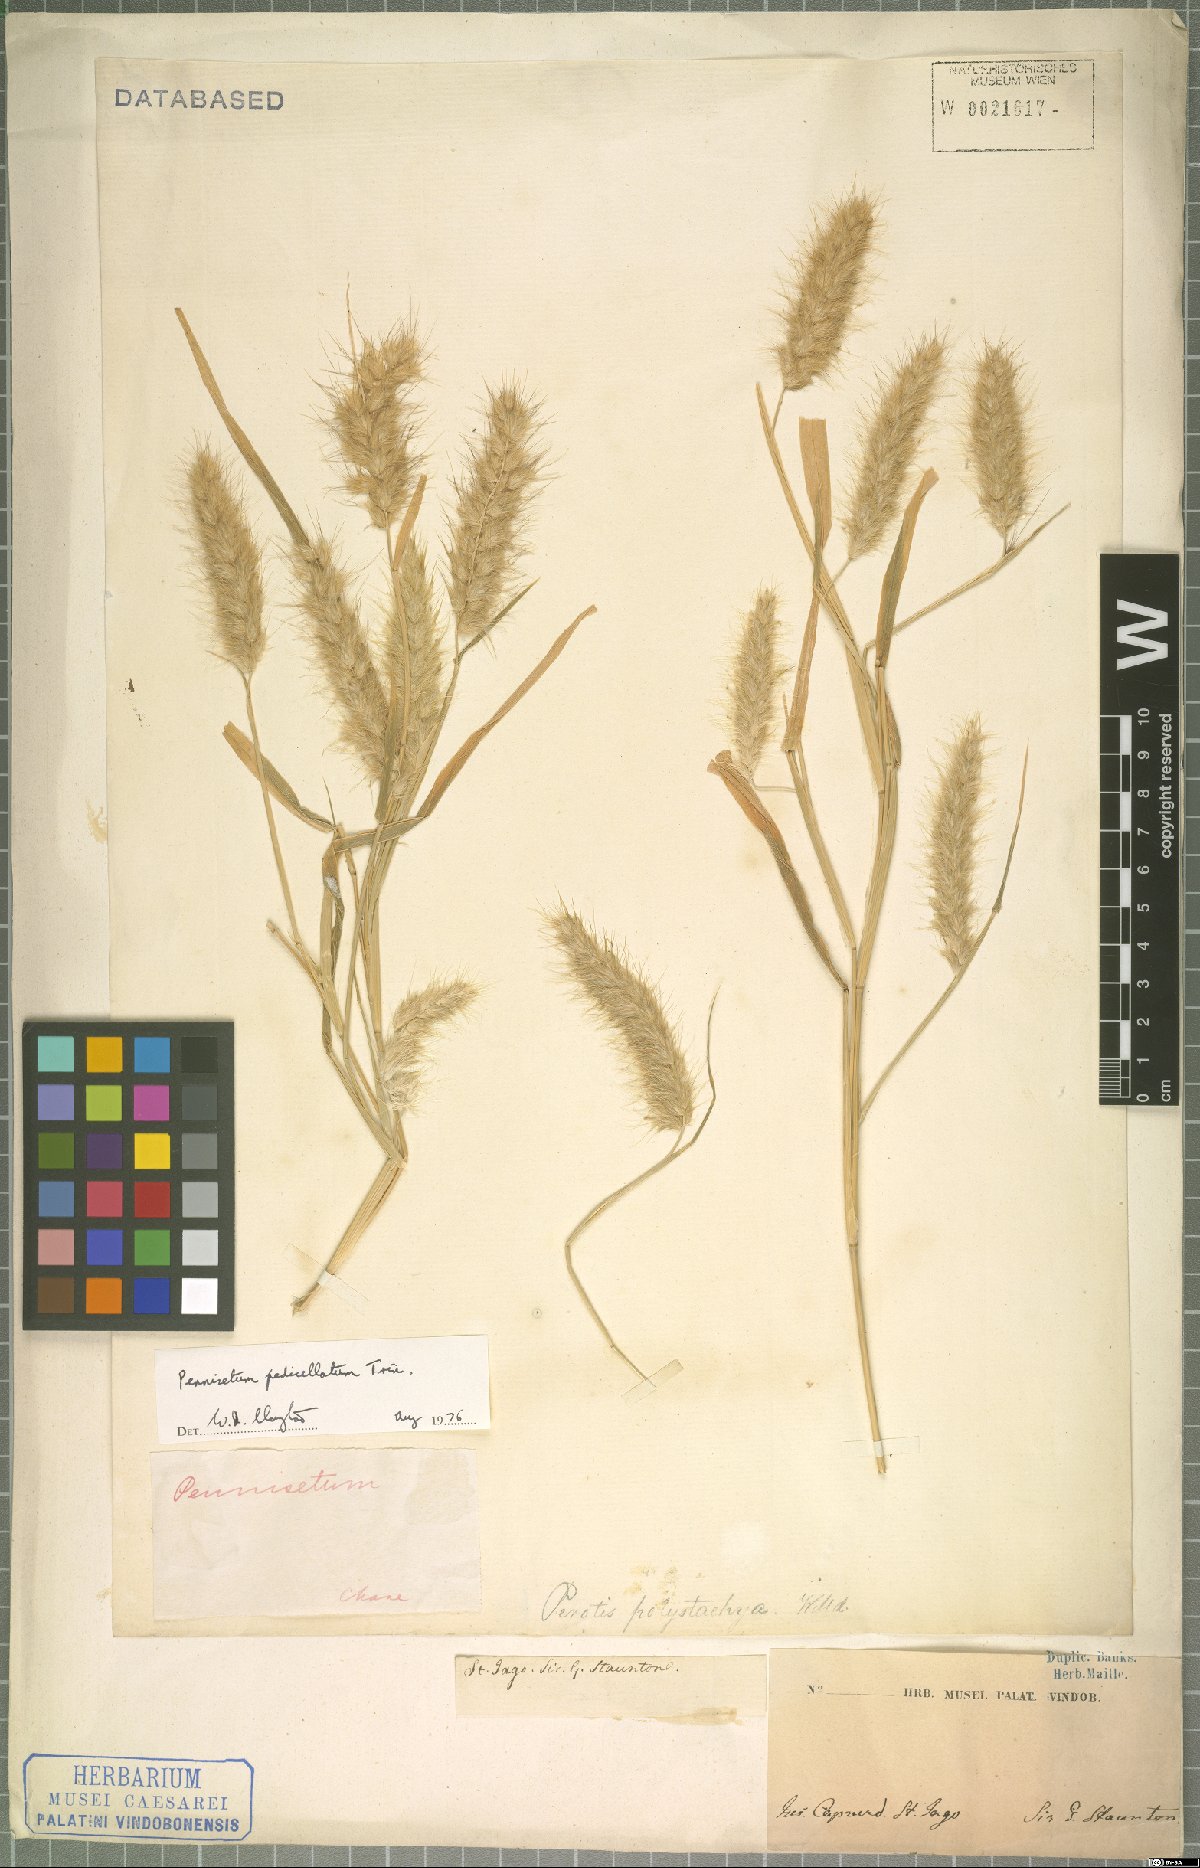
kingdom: Plantae
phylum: Tracheophyta
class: Liliopsida
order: Poales
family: Poaceae
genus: Cenchrus
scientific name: Cenchrus pedicellatus
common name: Hairy fountain grass
